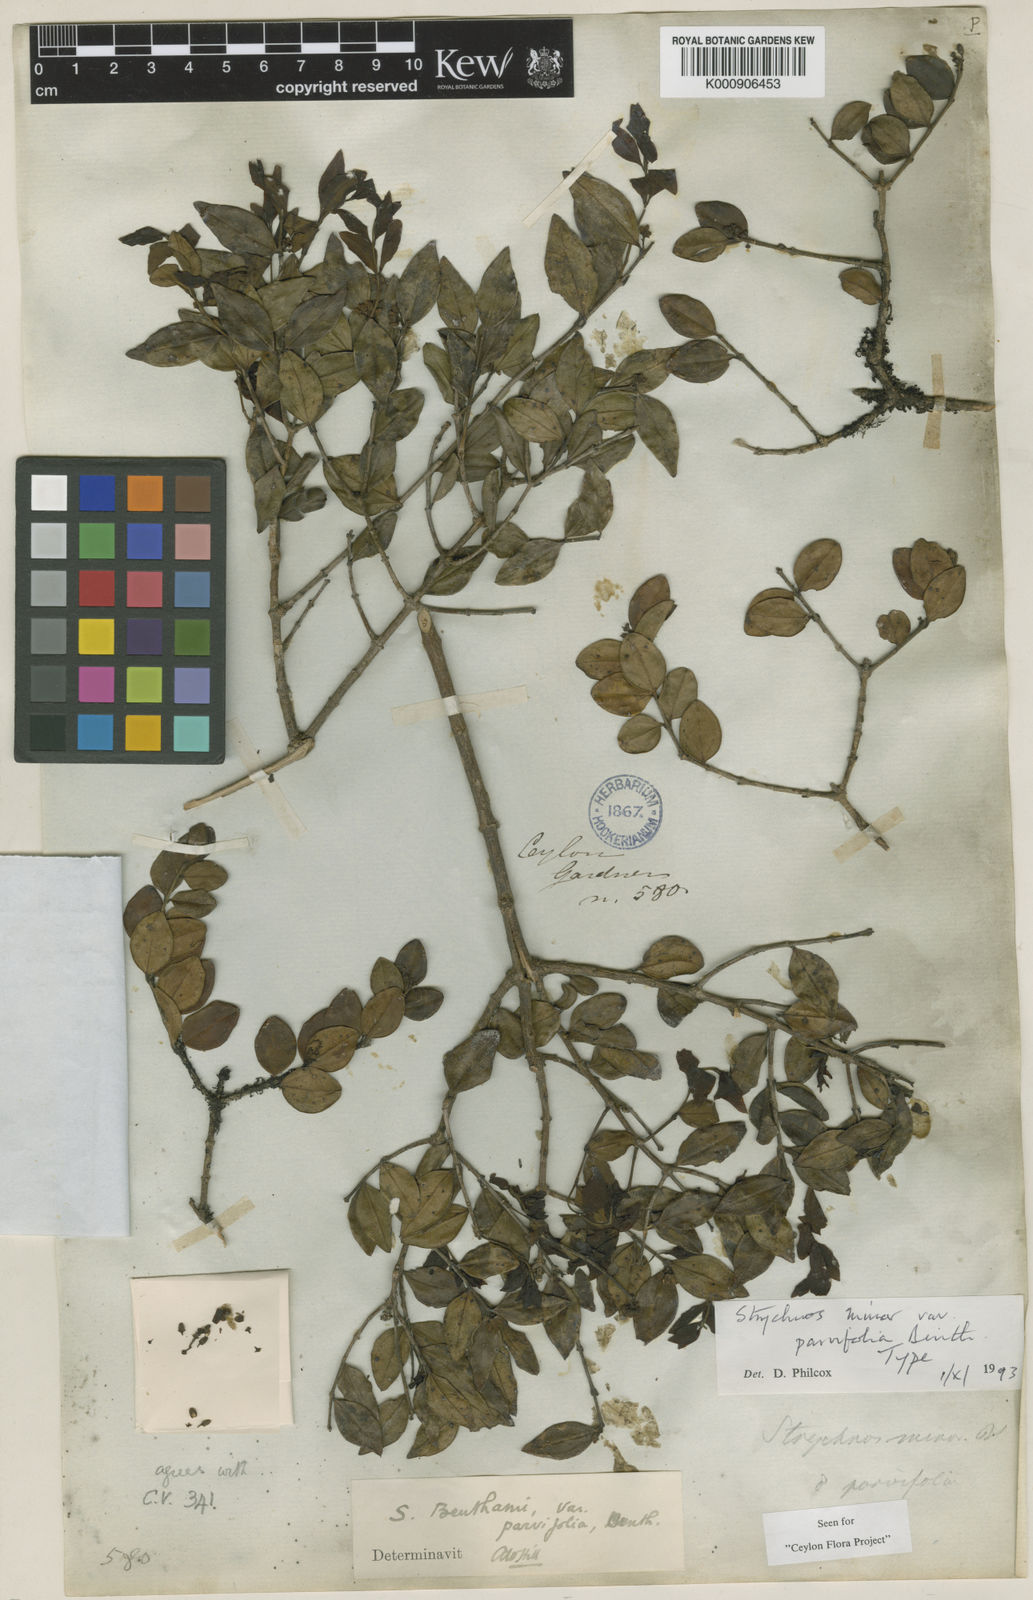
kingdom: Plantae
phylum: Tracheophyta
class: Magnoliopsida
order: Gentianales
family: Loganiaceae
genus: Strychnos
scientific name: Strychnos benthamii
